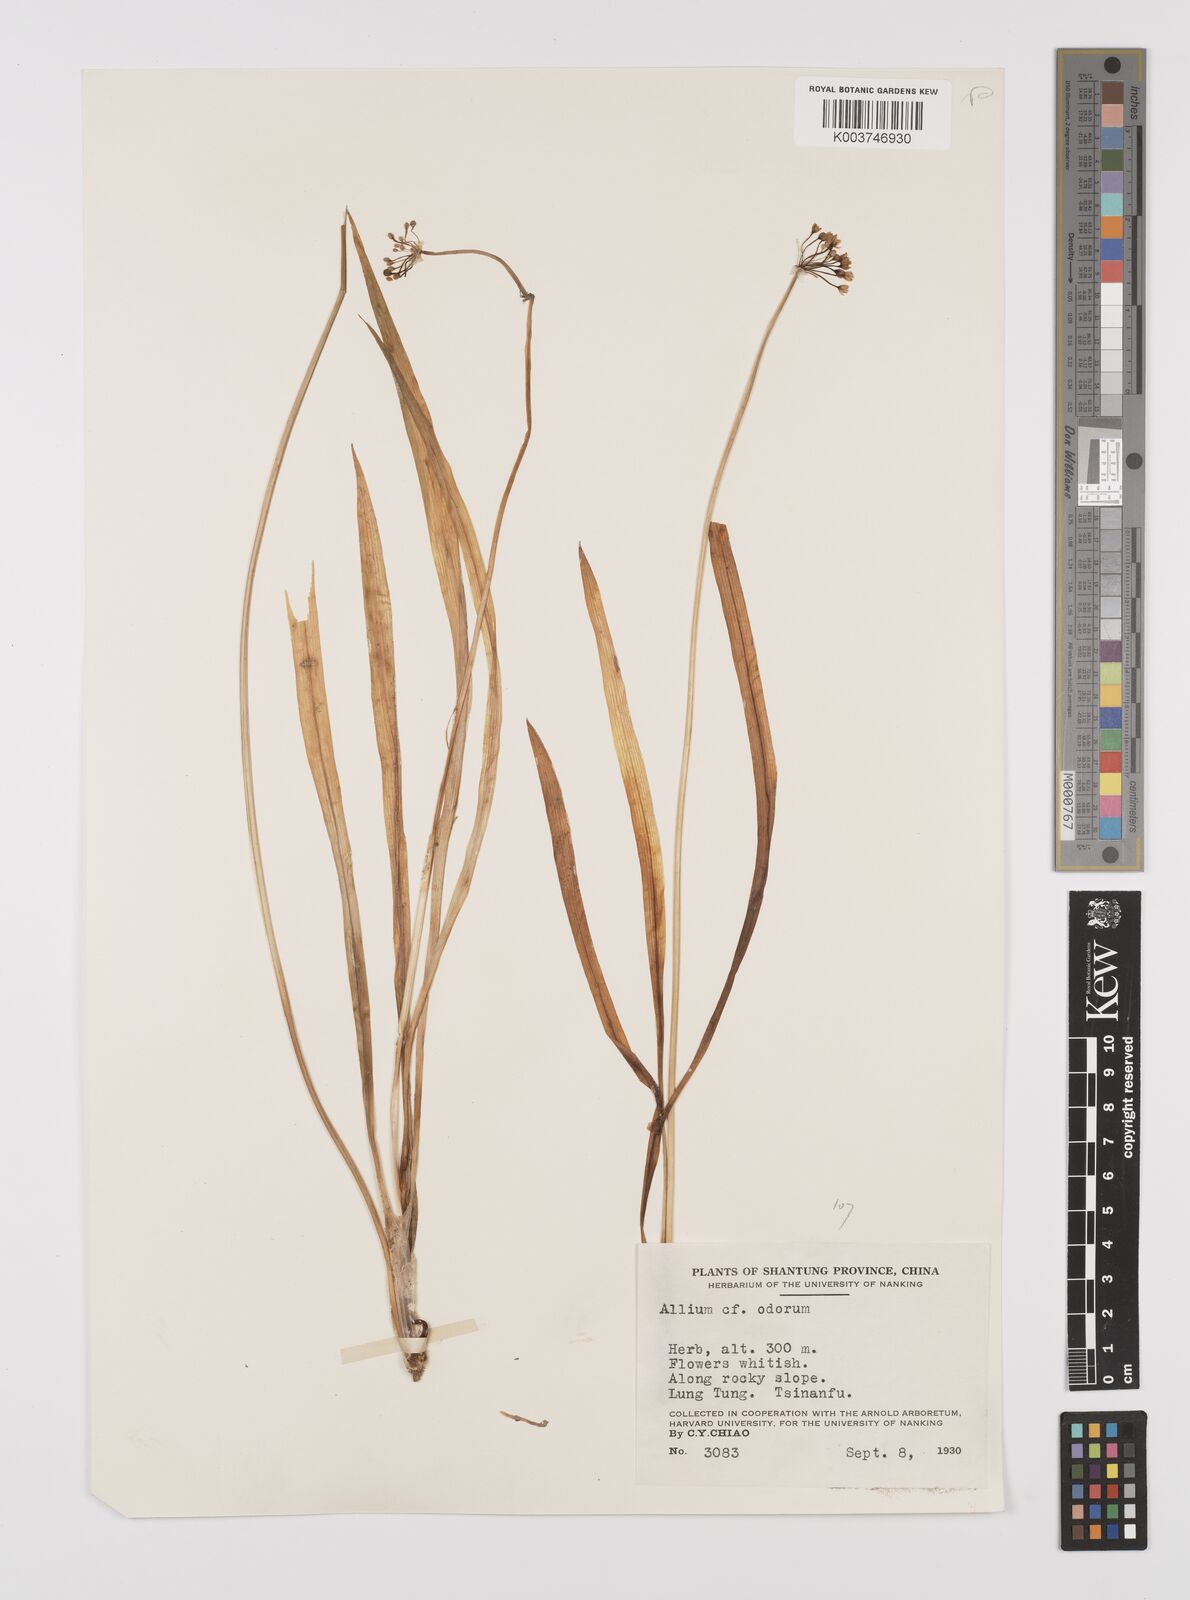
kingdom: Plantae
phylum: Tracheophyta
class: Liliopsida
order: Asparagales
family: Amaryllidaceae
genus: Allium
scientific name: Allium
